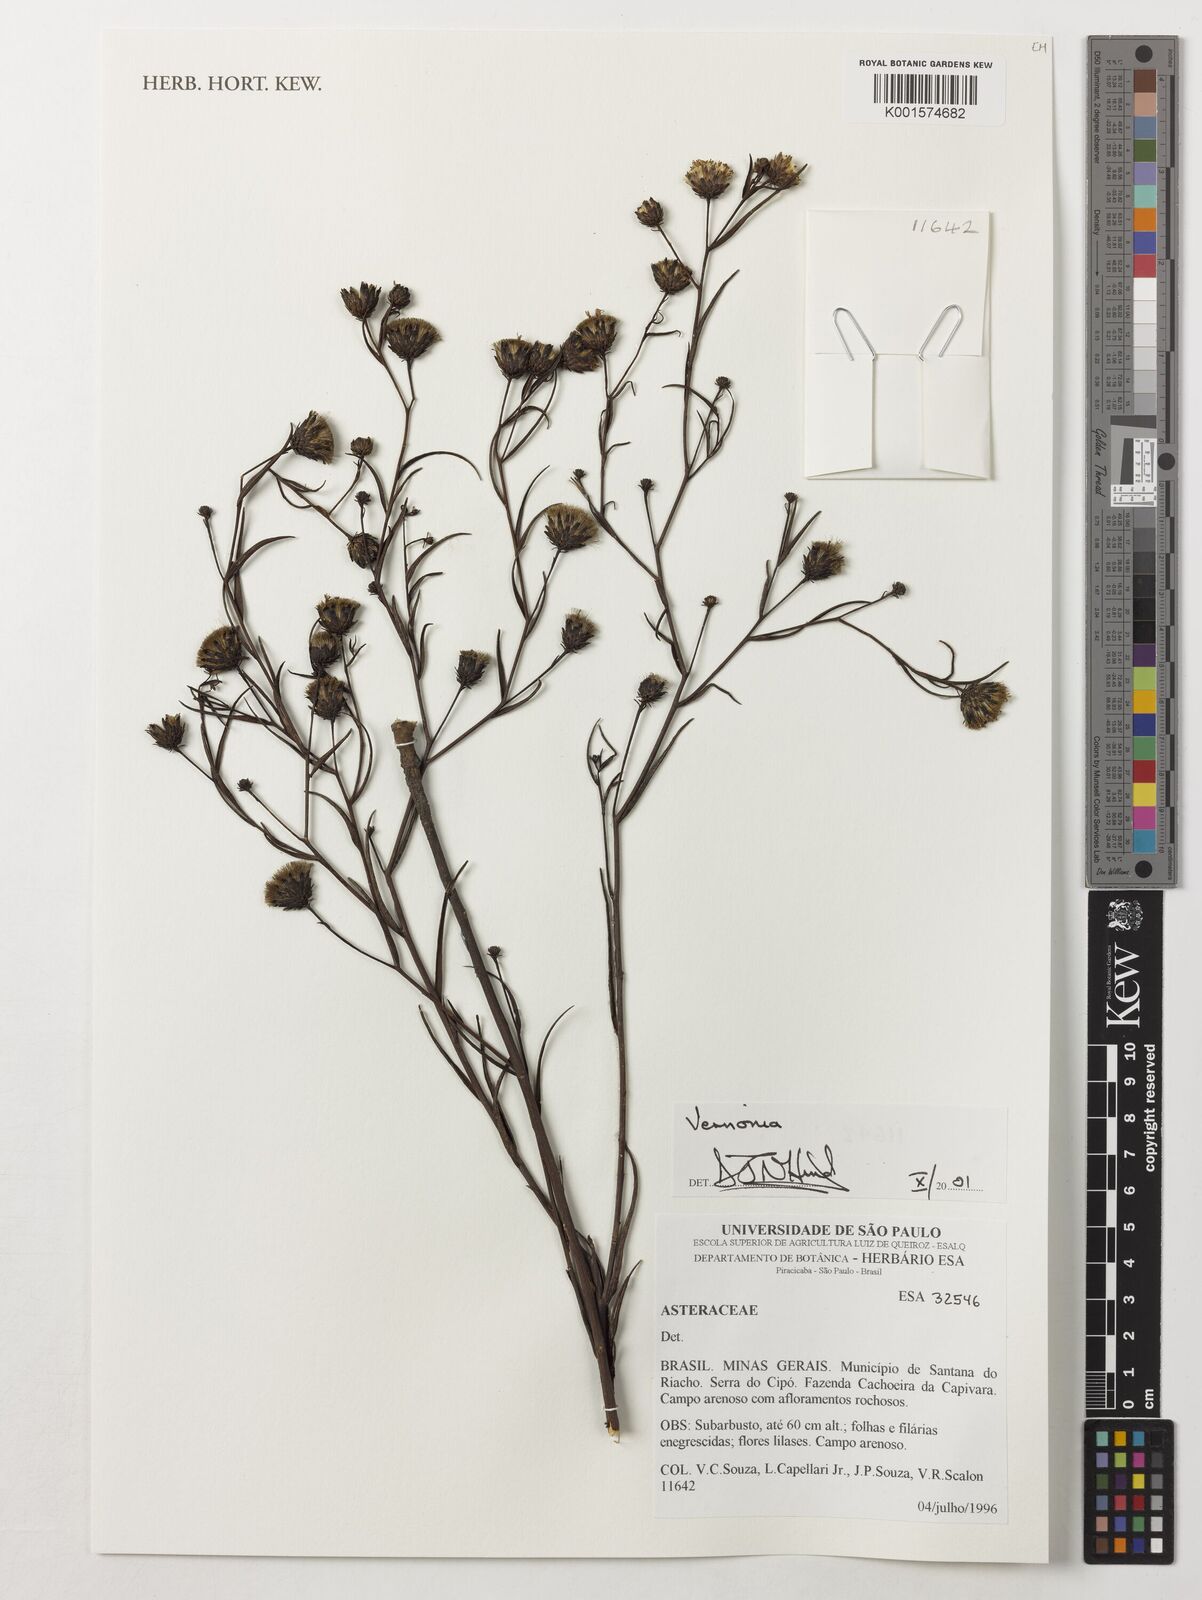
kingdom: Plantae
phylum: Tracheophyta
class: Magnoliopsida
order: Asterales
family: Asteraceae
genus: Vernonia
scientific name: Vernonia
